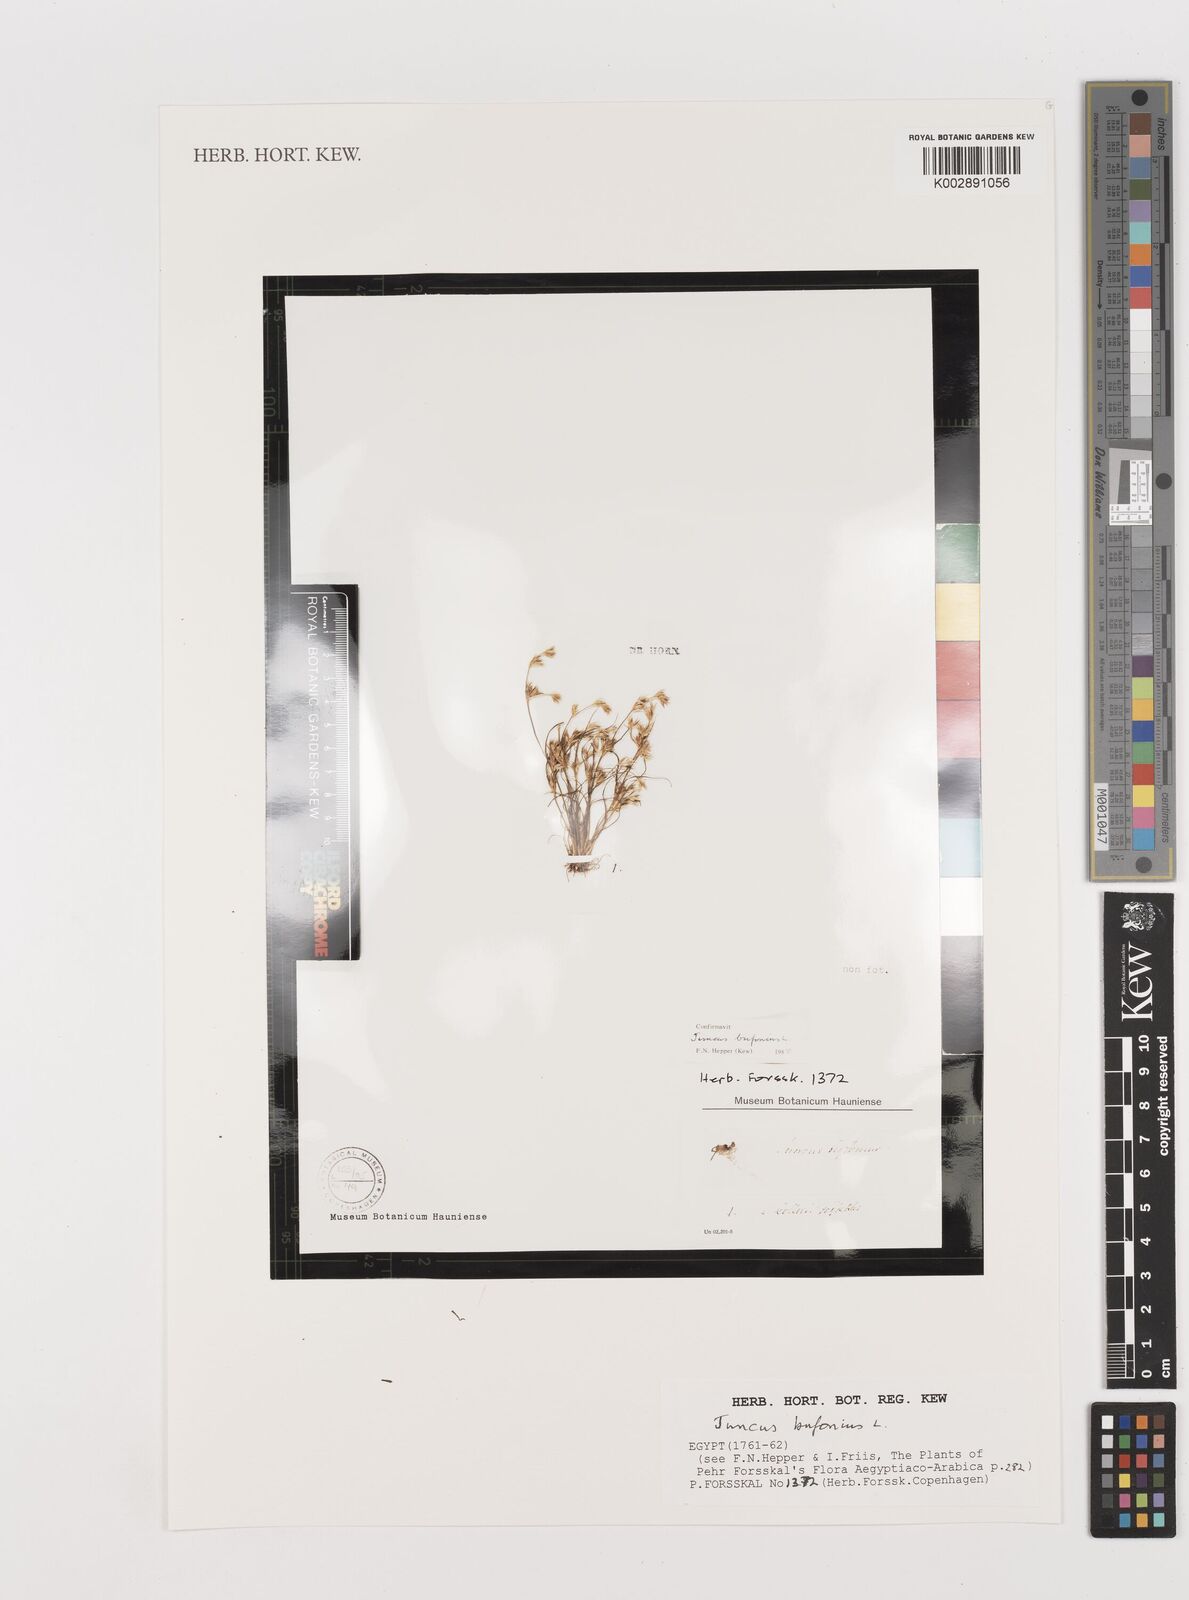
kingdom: Plantae
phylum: Tracheophyta
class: Liliopsida
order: Poales
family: Juncaceae
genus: Juncus
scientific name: Juncus bufonius
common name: Toad rush
